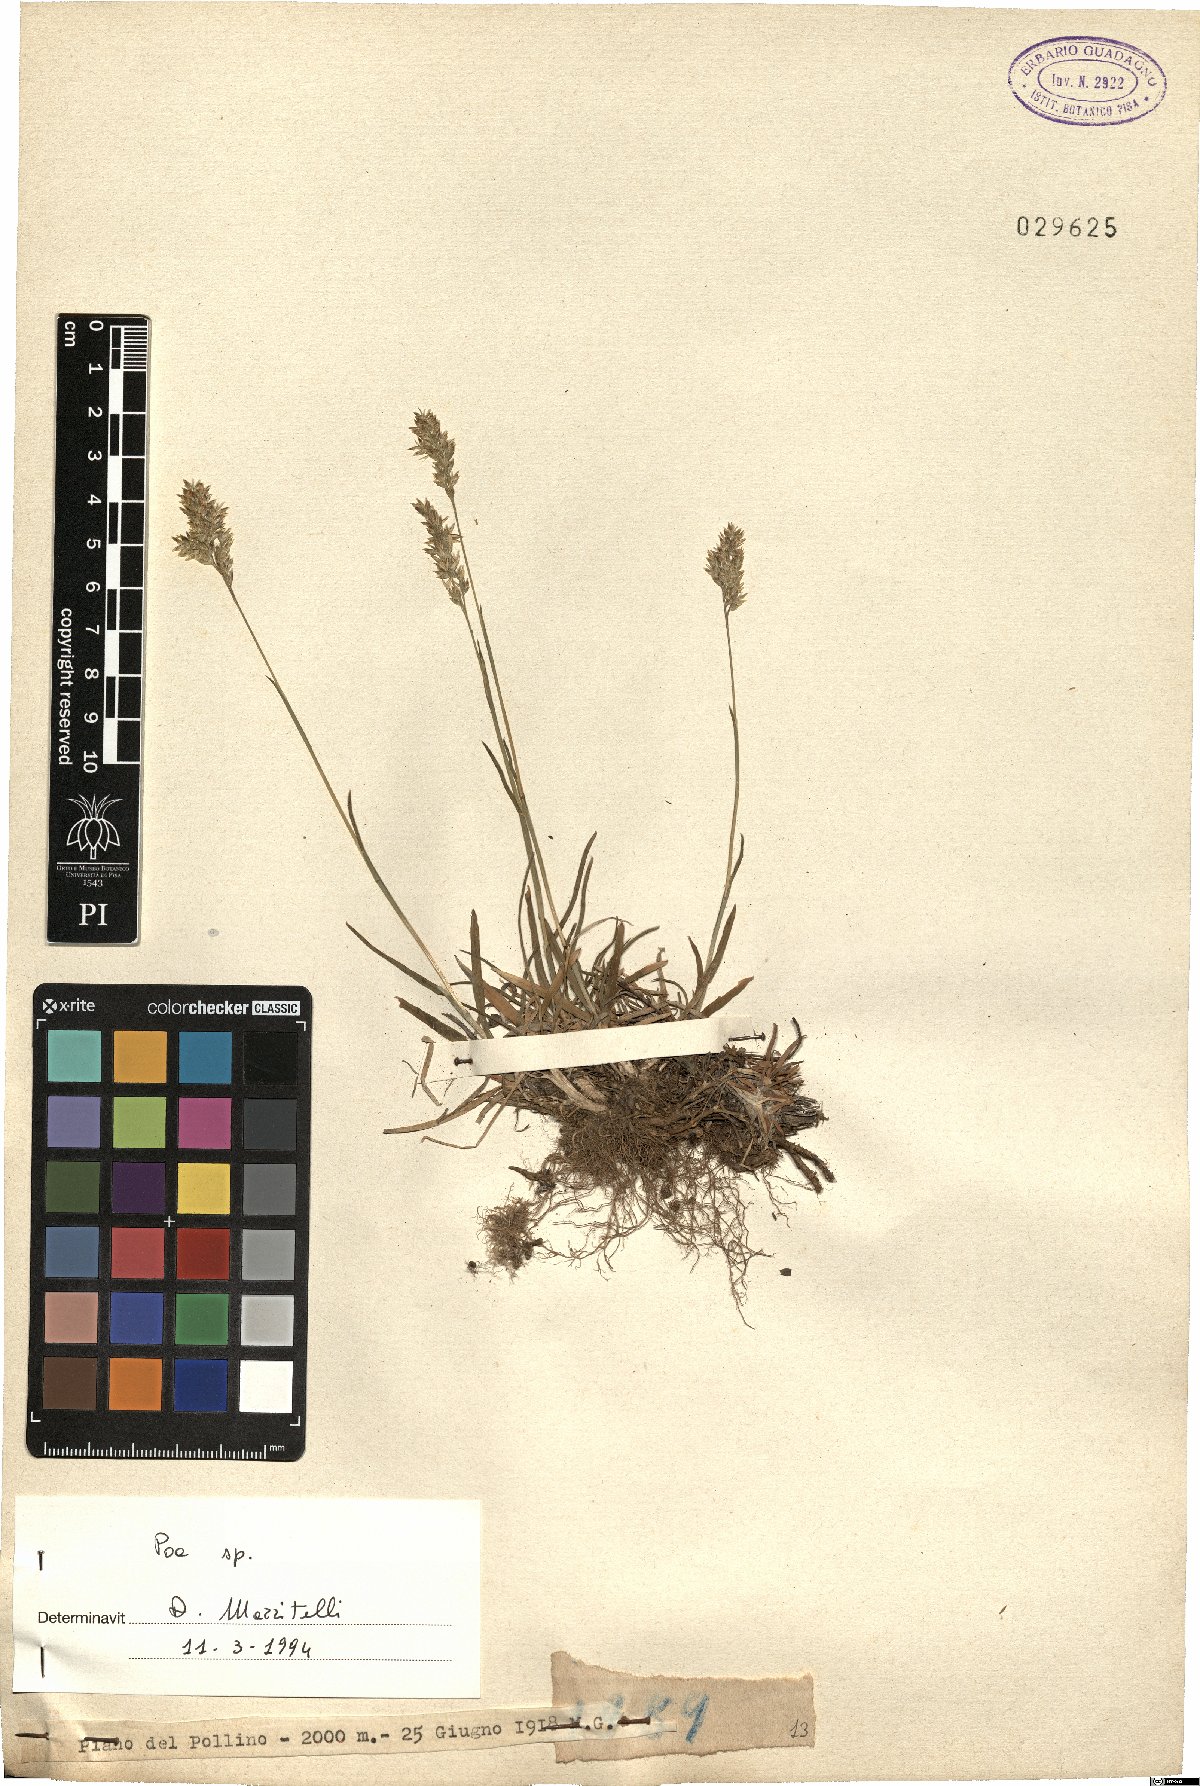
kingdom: Plantae
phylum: Tracheophyta
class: Liliopsida
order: Poales
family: Poaceae
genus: Poa
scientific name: Poa
